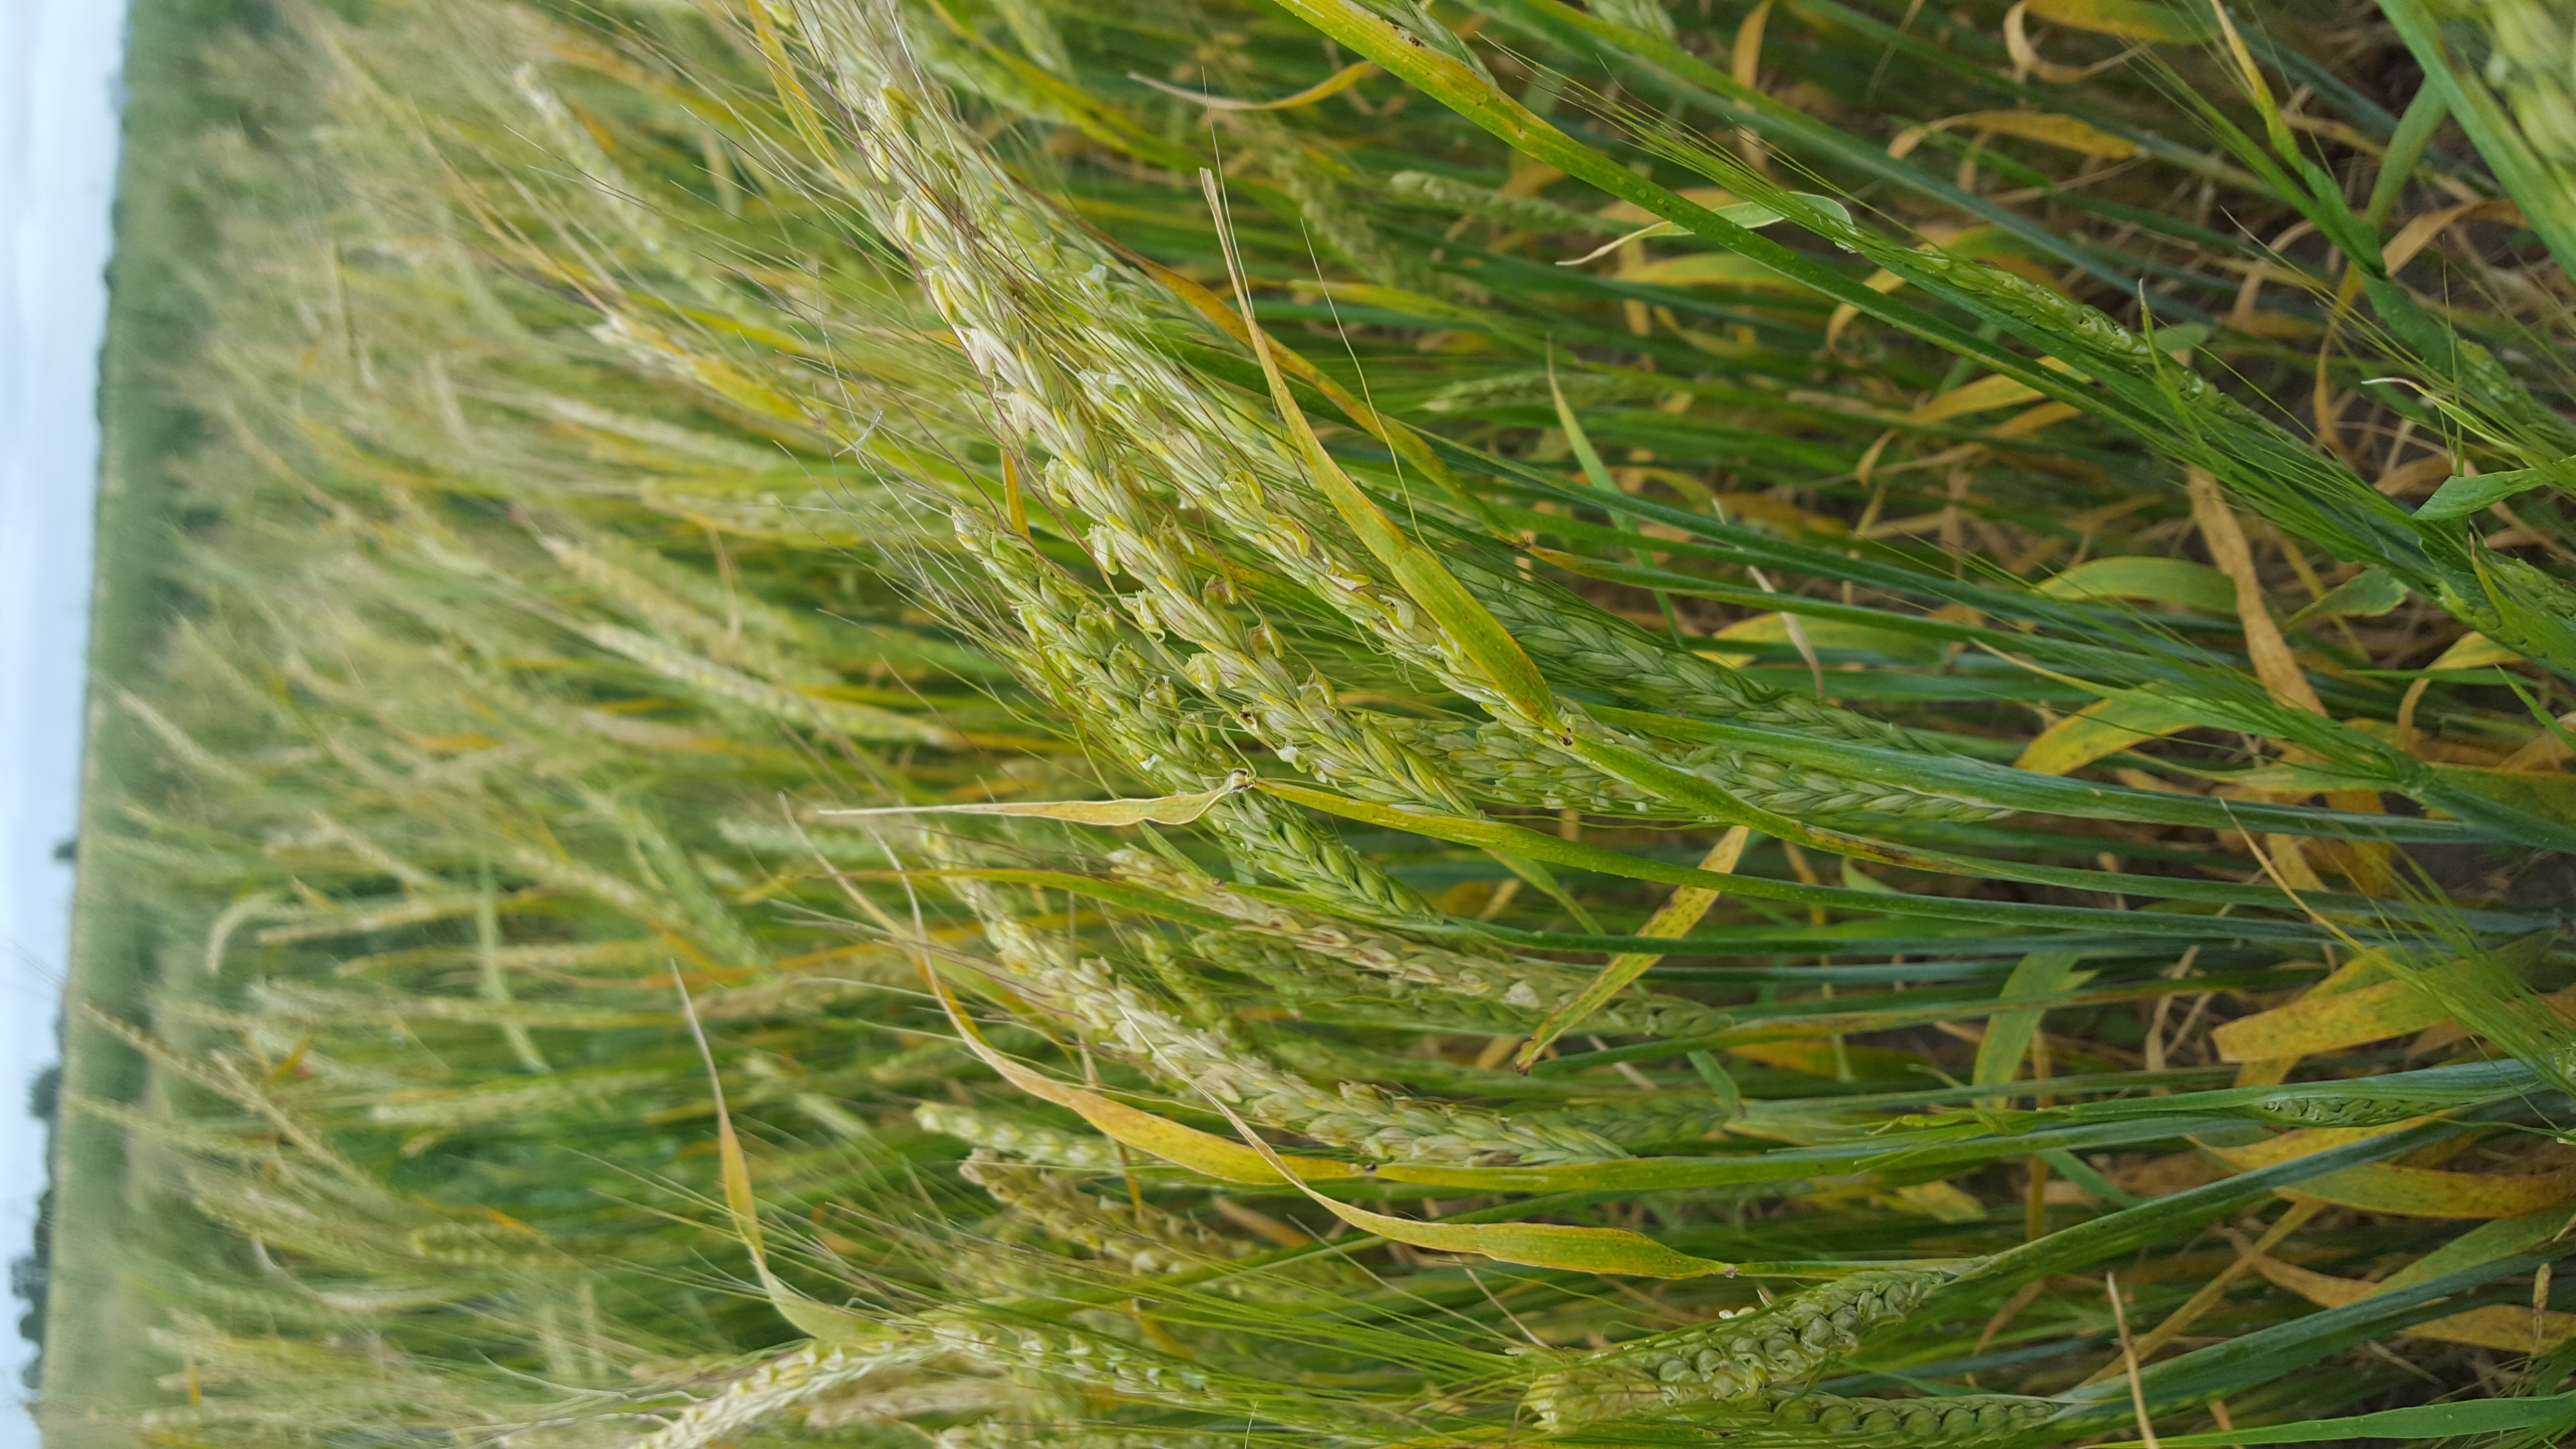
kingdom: Plantae
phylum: Tracheophyta
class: Liliopsida
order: Poales
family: Poaceae
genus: Hordeum
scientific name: Hordeum vulgare
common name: Common barley
